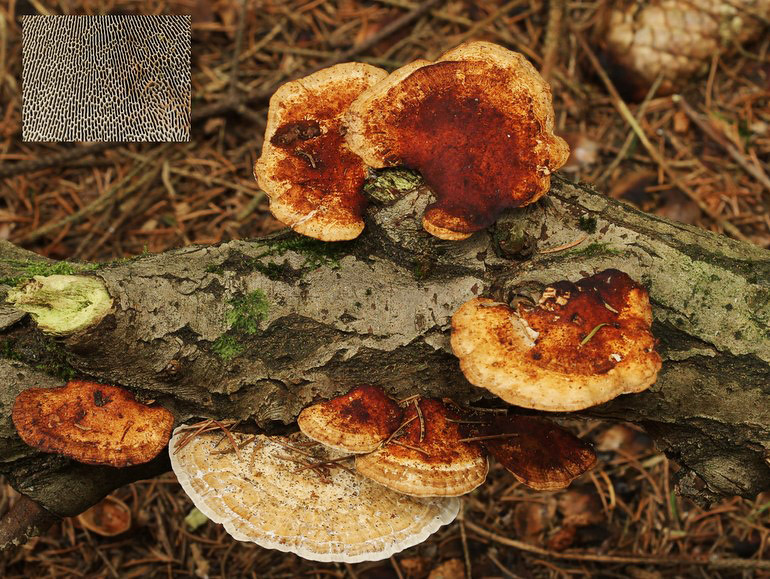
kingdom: Fungi
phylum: Basidiomycota
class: Agaricomycetes
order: Polyporales
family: Polyporaceae
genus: Daedaleopsis
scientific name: Daedaleopsis confragosa
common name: rødmende læderporesvamp
